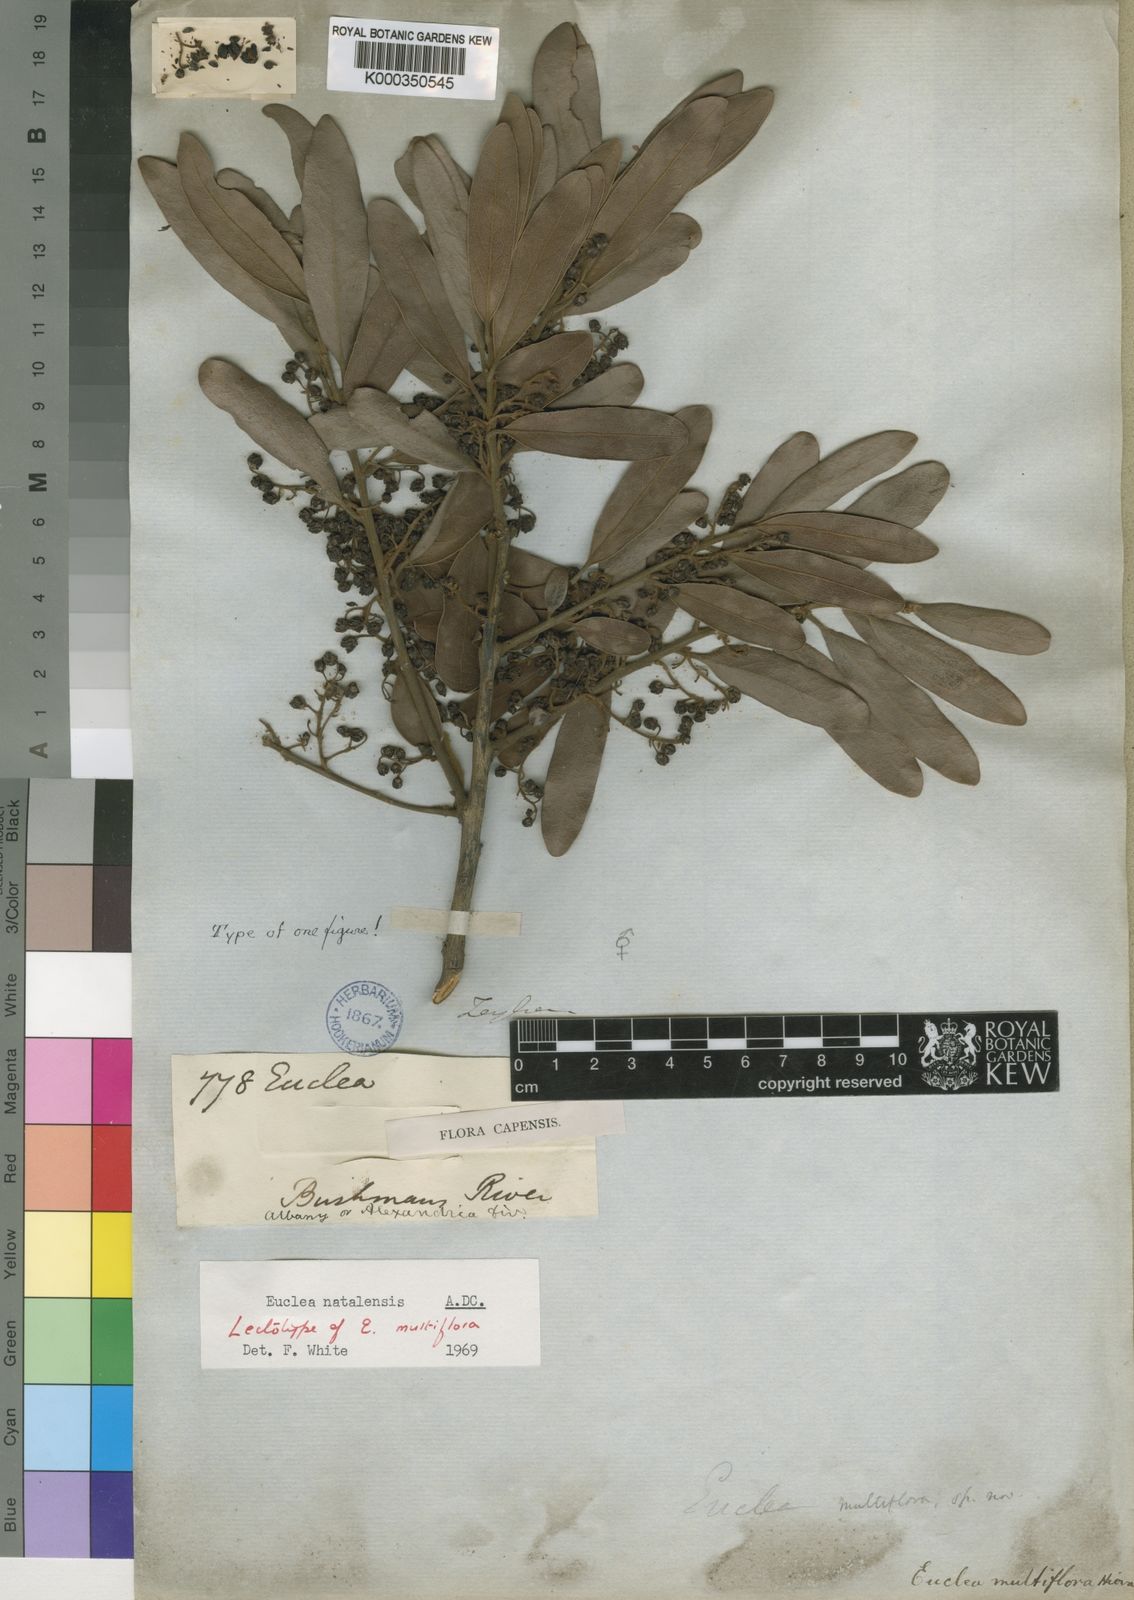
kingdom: Plantae
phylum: Tracheophyta
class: Magnoliopsida
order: Ericales
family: Ebenaceae
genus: Euclea
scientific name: Euclea natalensis
